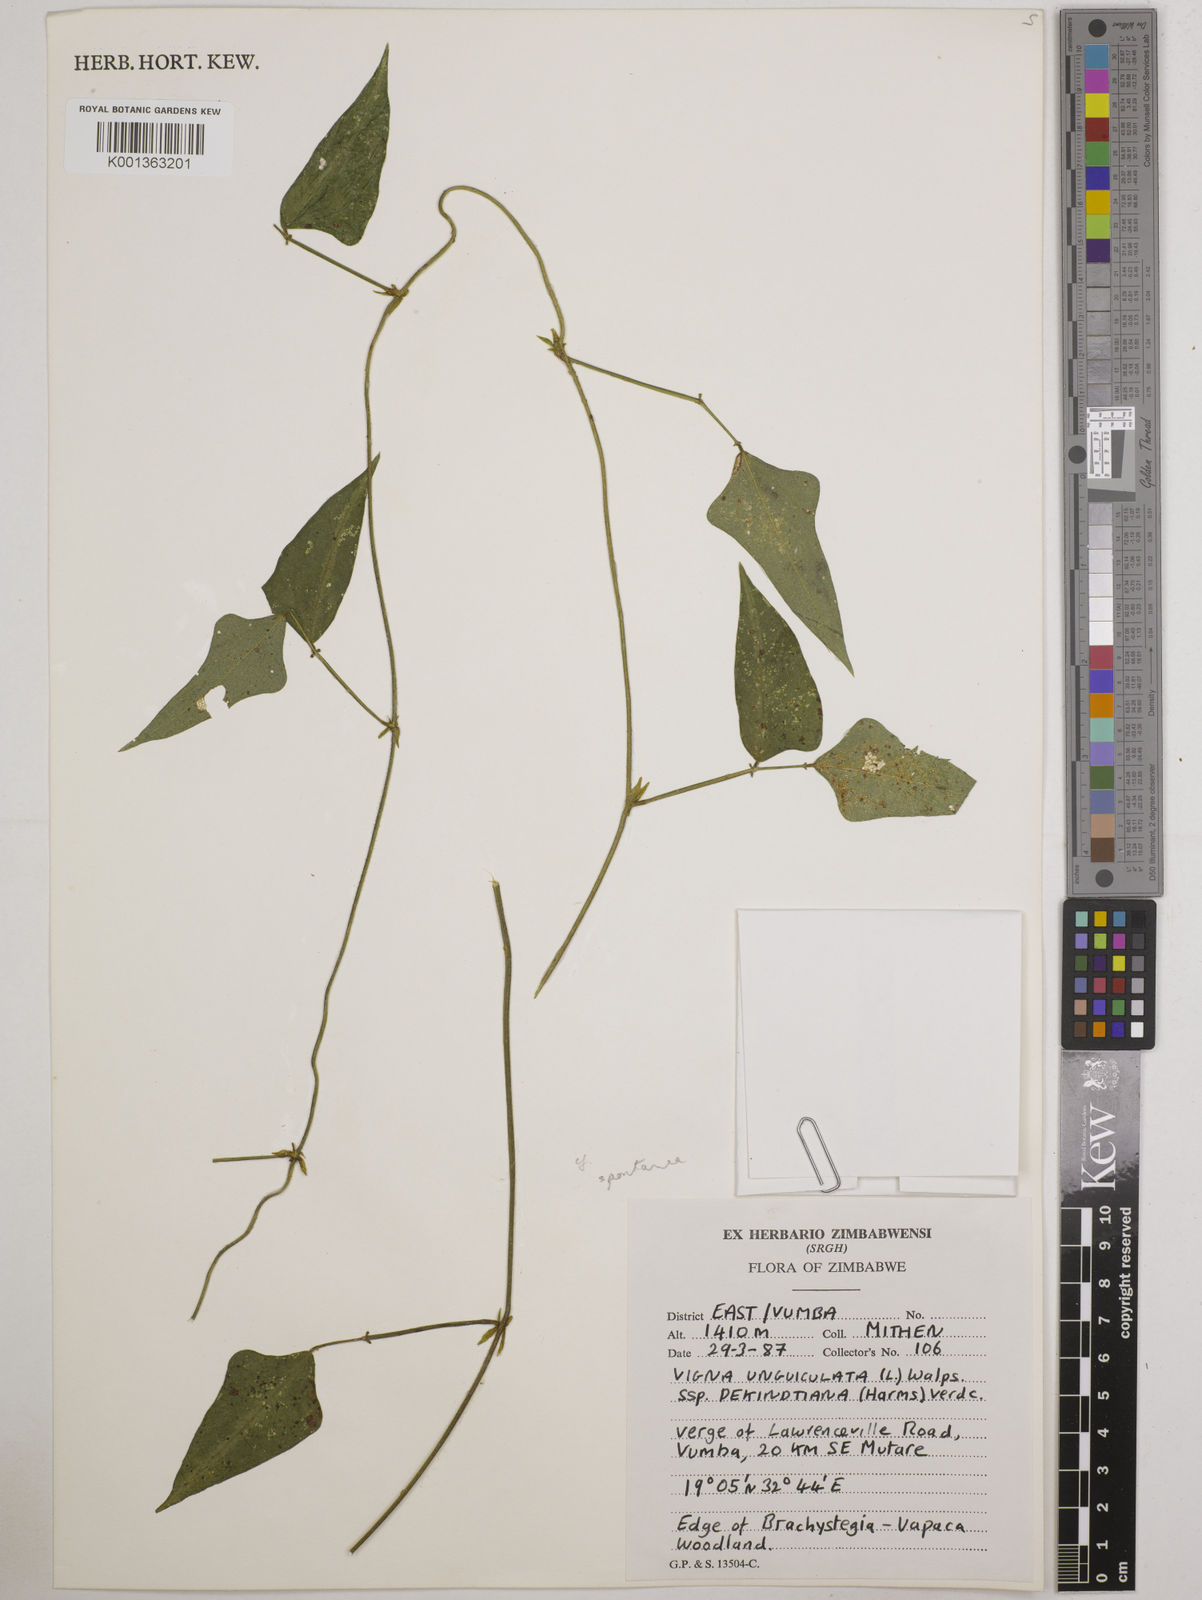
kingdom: Plantae
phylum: Tracheophyta
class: Magnoliopsida
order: Fabales
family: Fabaceae
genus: Vigna
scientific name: Vigna unguiculata
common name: Cowpea
